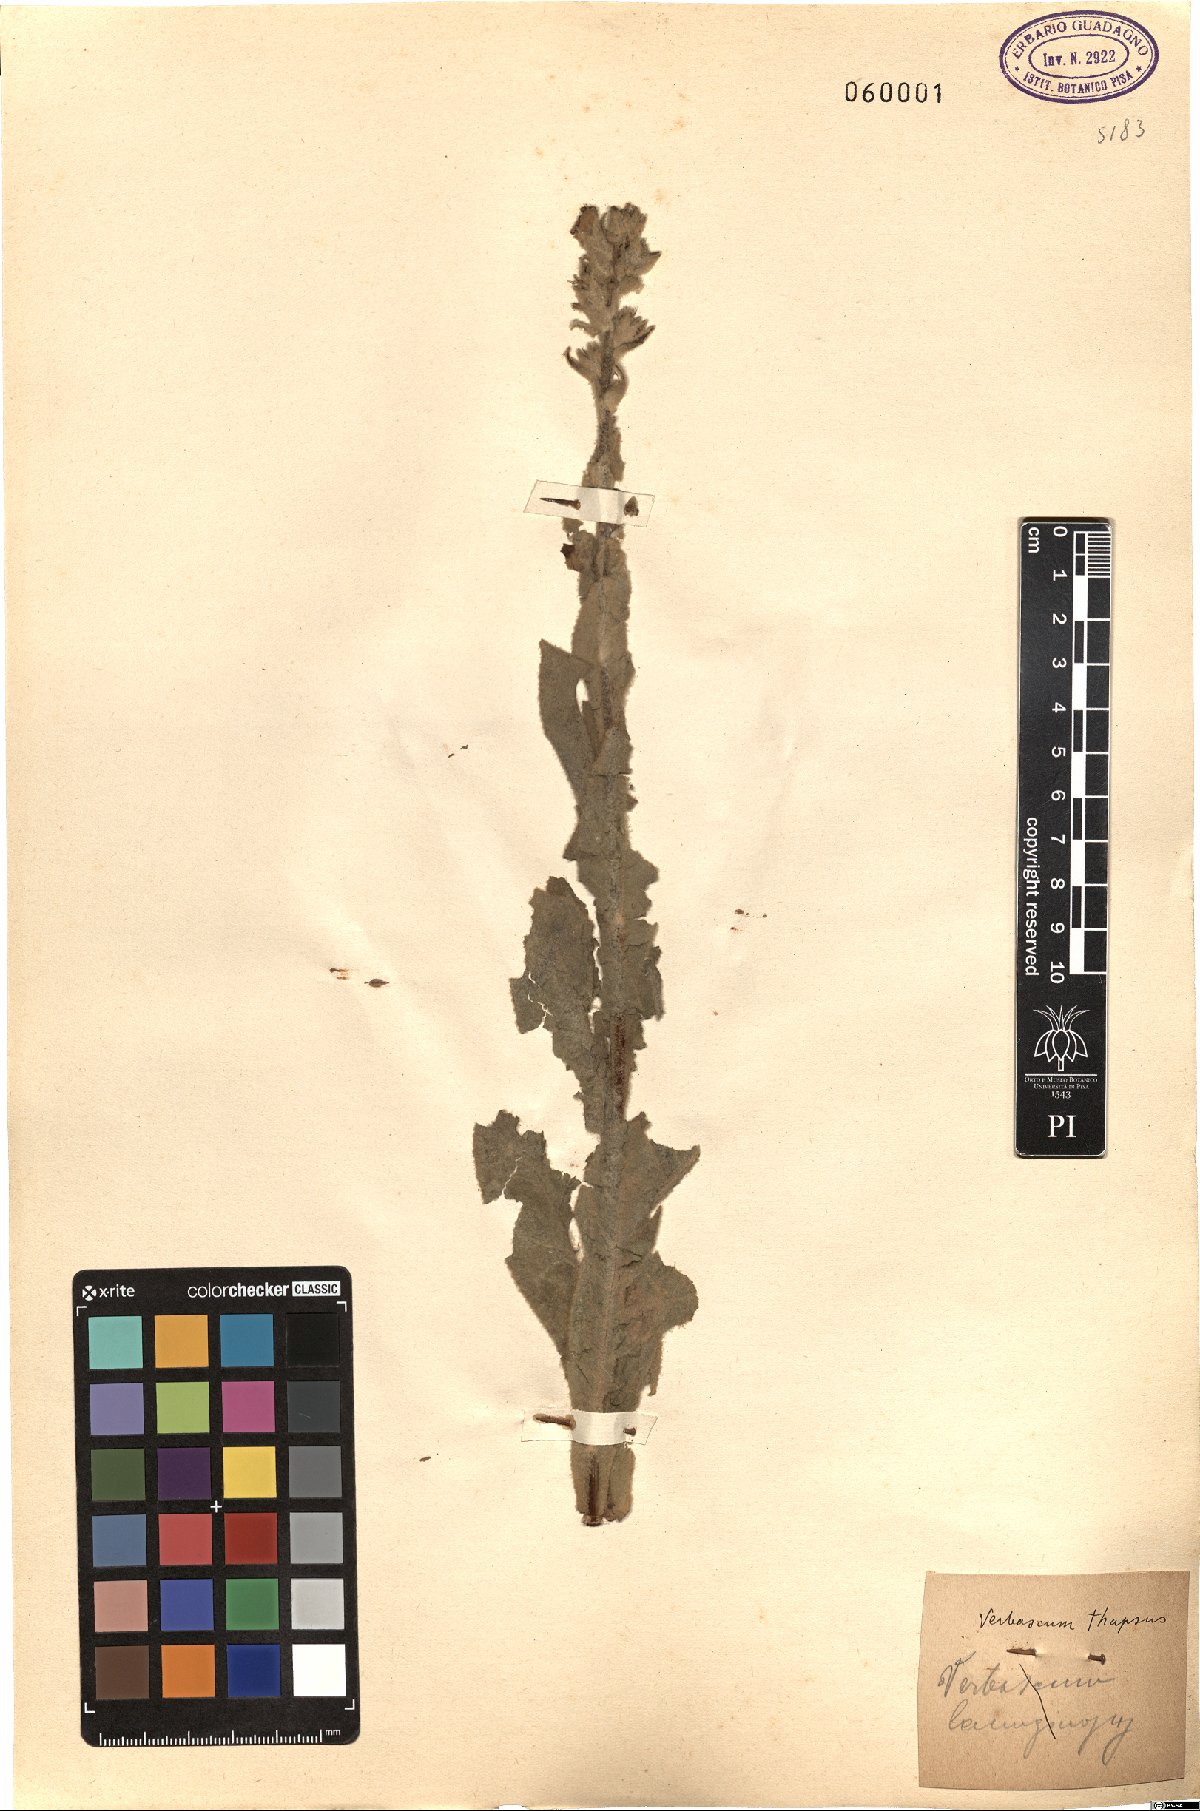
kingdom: Plantae
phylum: Tracheophyta
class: Magnoliopsida
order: Lamiales
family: Scrophulariaceae
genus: Verbascum
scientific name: Verbascum thapsus
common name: Common mullein
